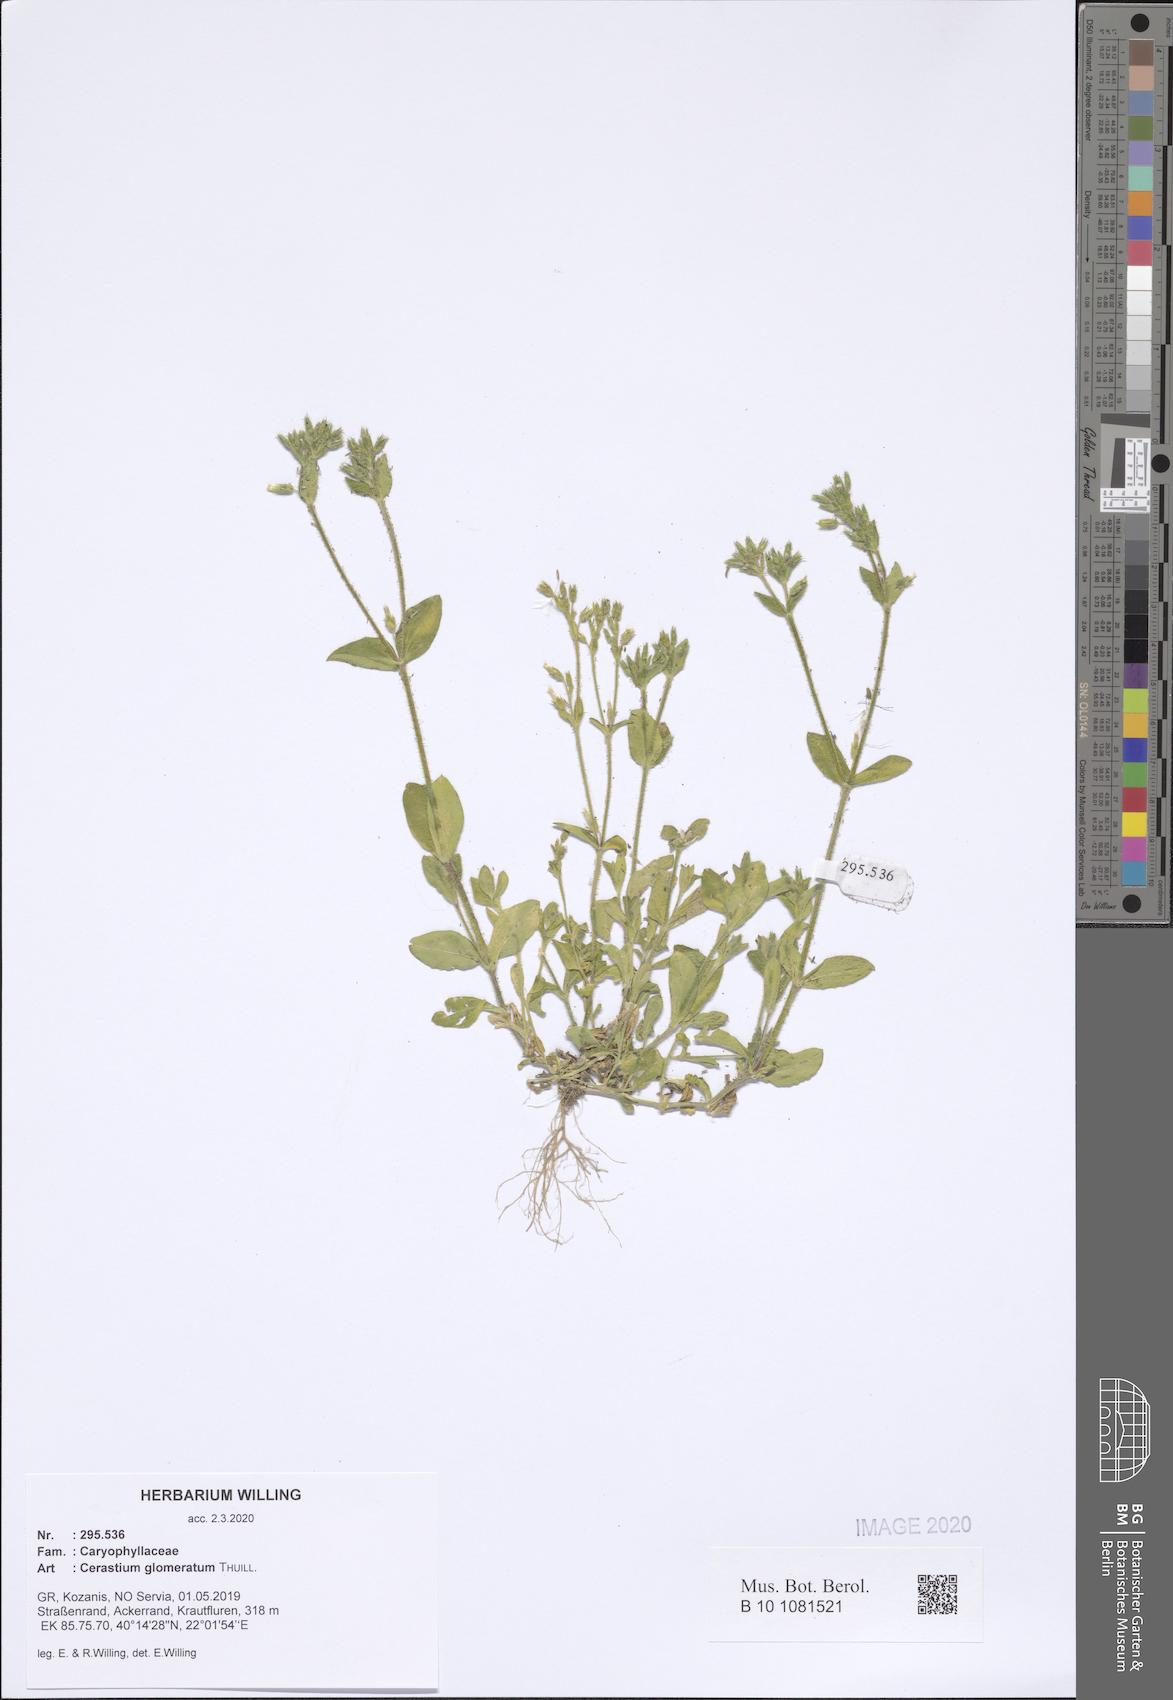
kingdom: Plantae
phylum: Tracheophyta
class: Magnoliopsida
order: Caryophyllales
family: Caryophyllaceae
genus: Cerastium
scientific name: Cerastium glomeratum
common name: Sticky chickweed
